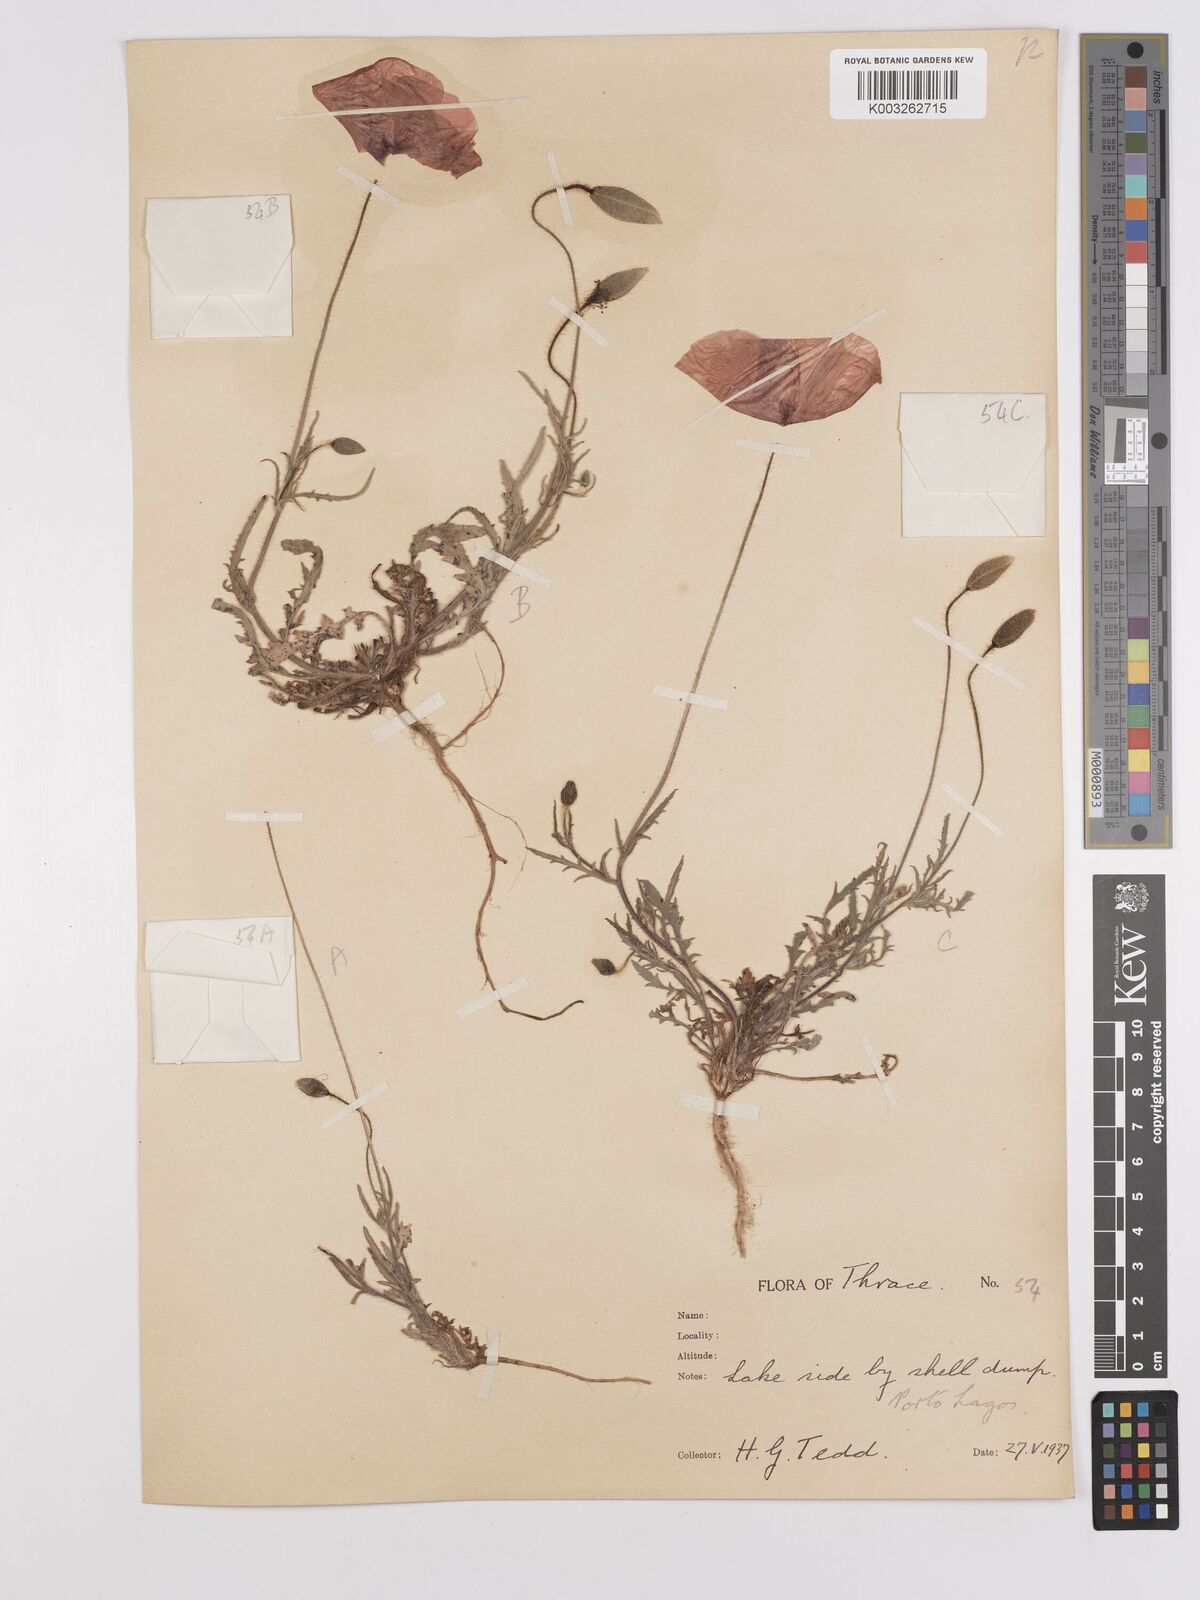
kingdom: Plantae
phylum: Tracheophyta
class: Magnoliopsida
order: Ranunculales
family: Papaveraceae
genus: Papaver
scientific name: Papaver
